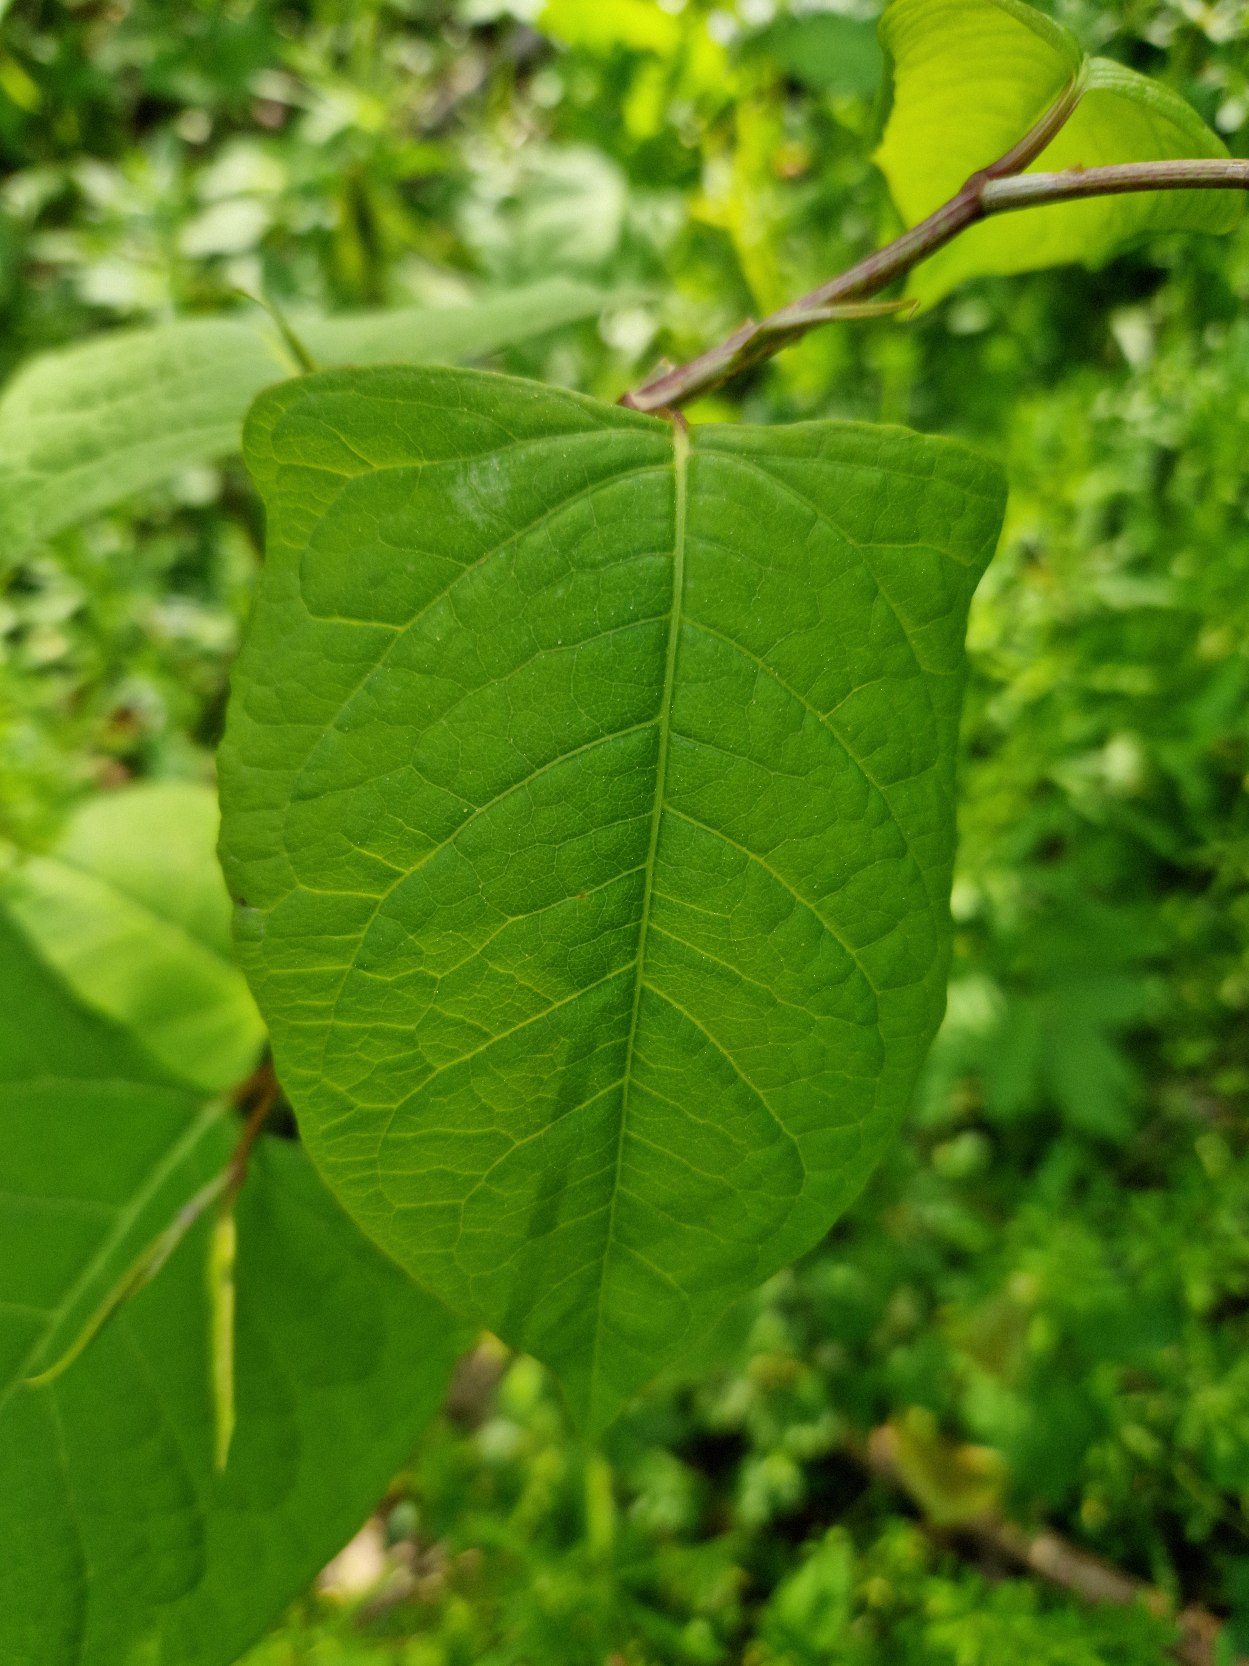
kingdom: Plantae
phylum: Tracheophyta
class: Magnoliopsida
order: Caryophyllales
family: Polygonaceae
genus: Reynoutria
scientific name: Reynoutria japonica
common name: Japan-pileurt
